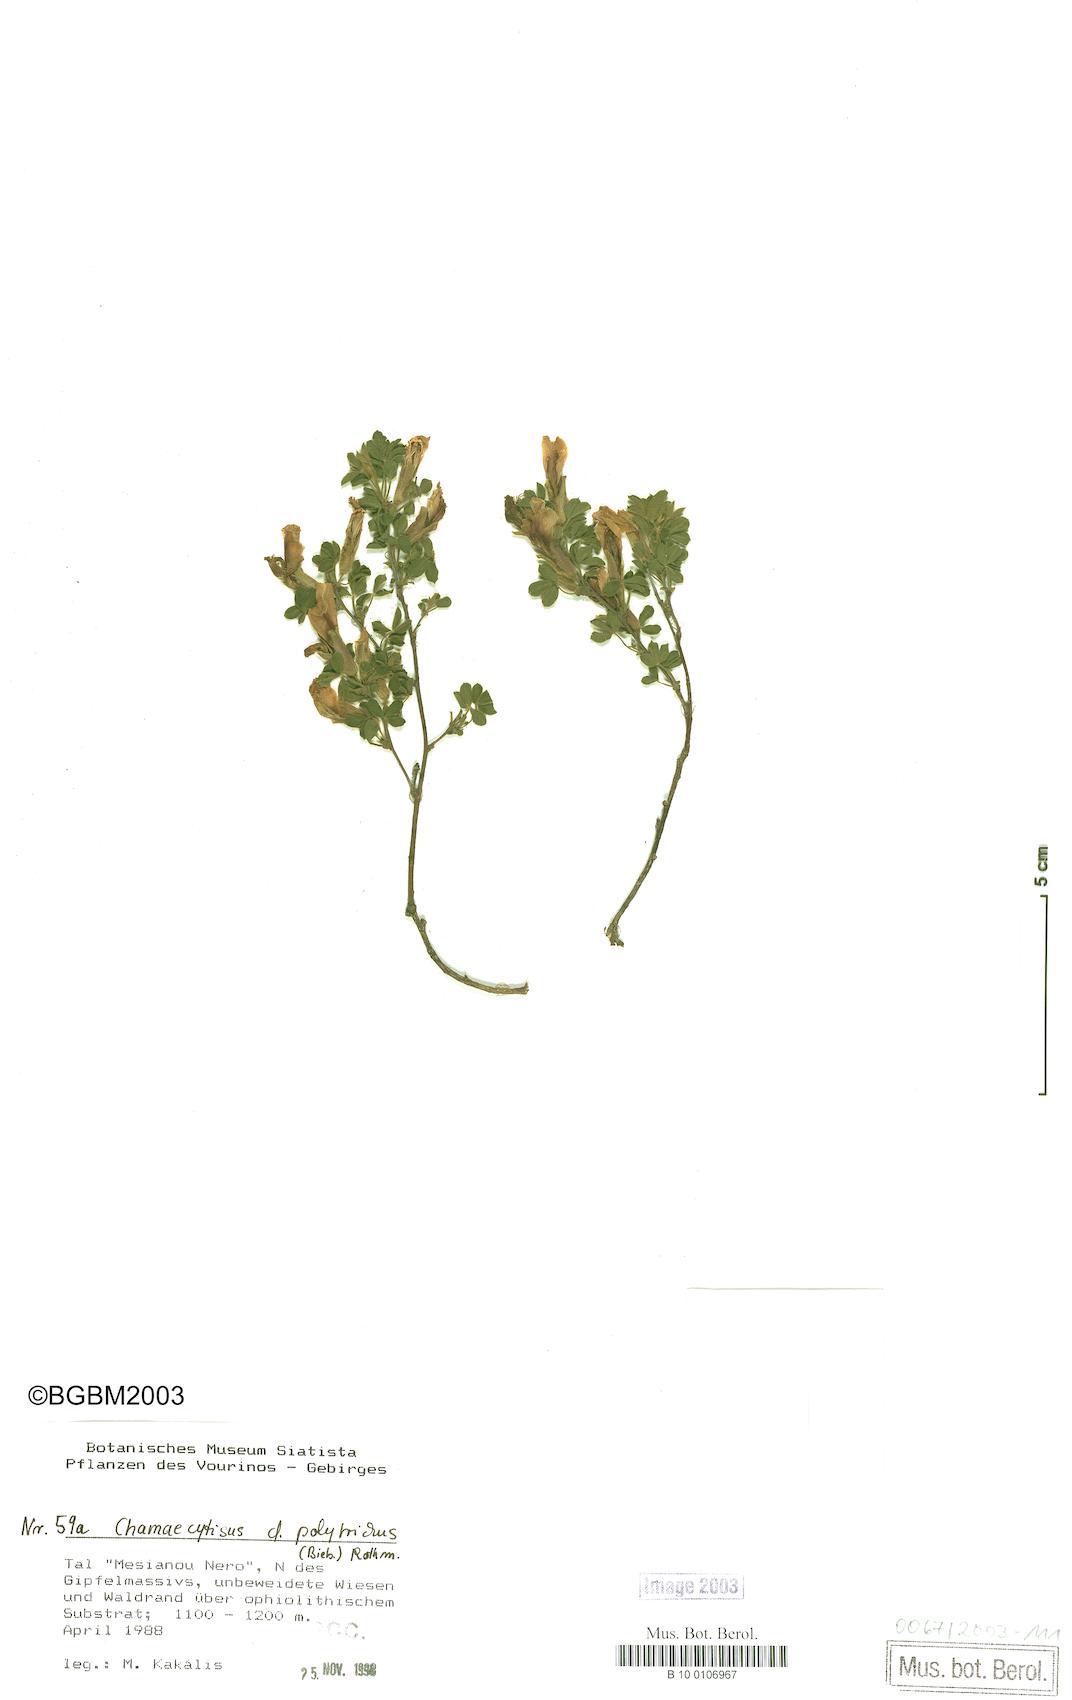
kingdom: Plantae
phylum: Tracheophyta
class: Magnoliopsida
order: Fabales
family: Fabaceae
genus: Chamaecytisus
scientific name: Chamaecytisus hirsutus
